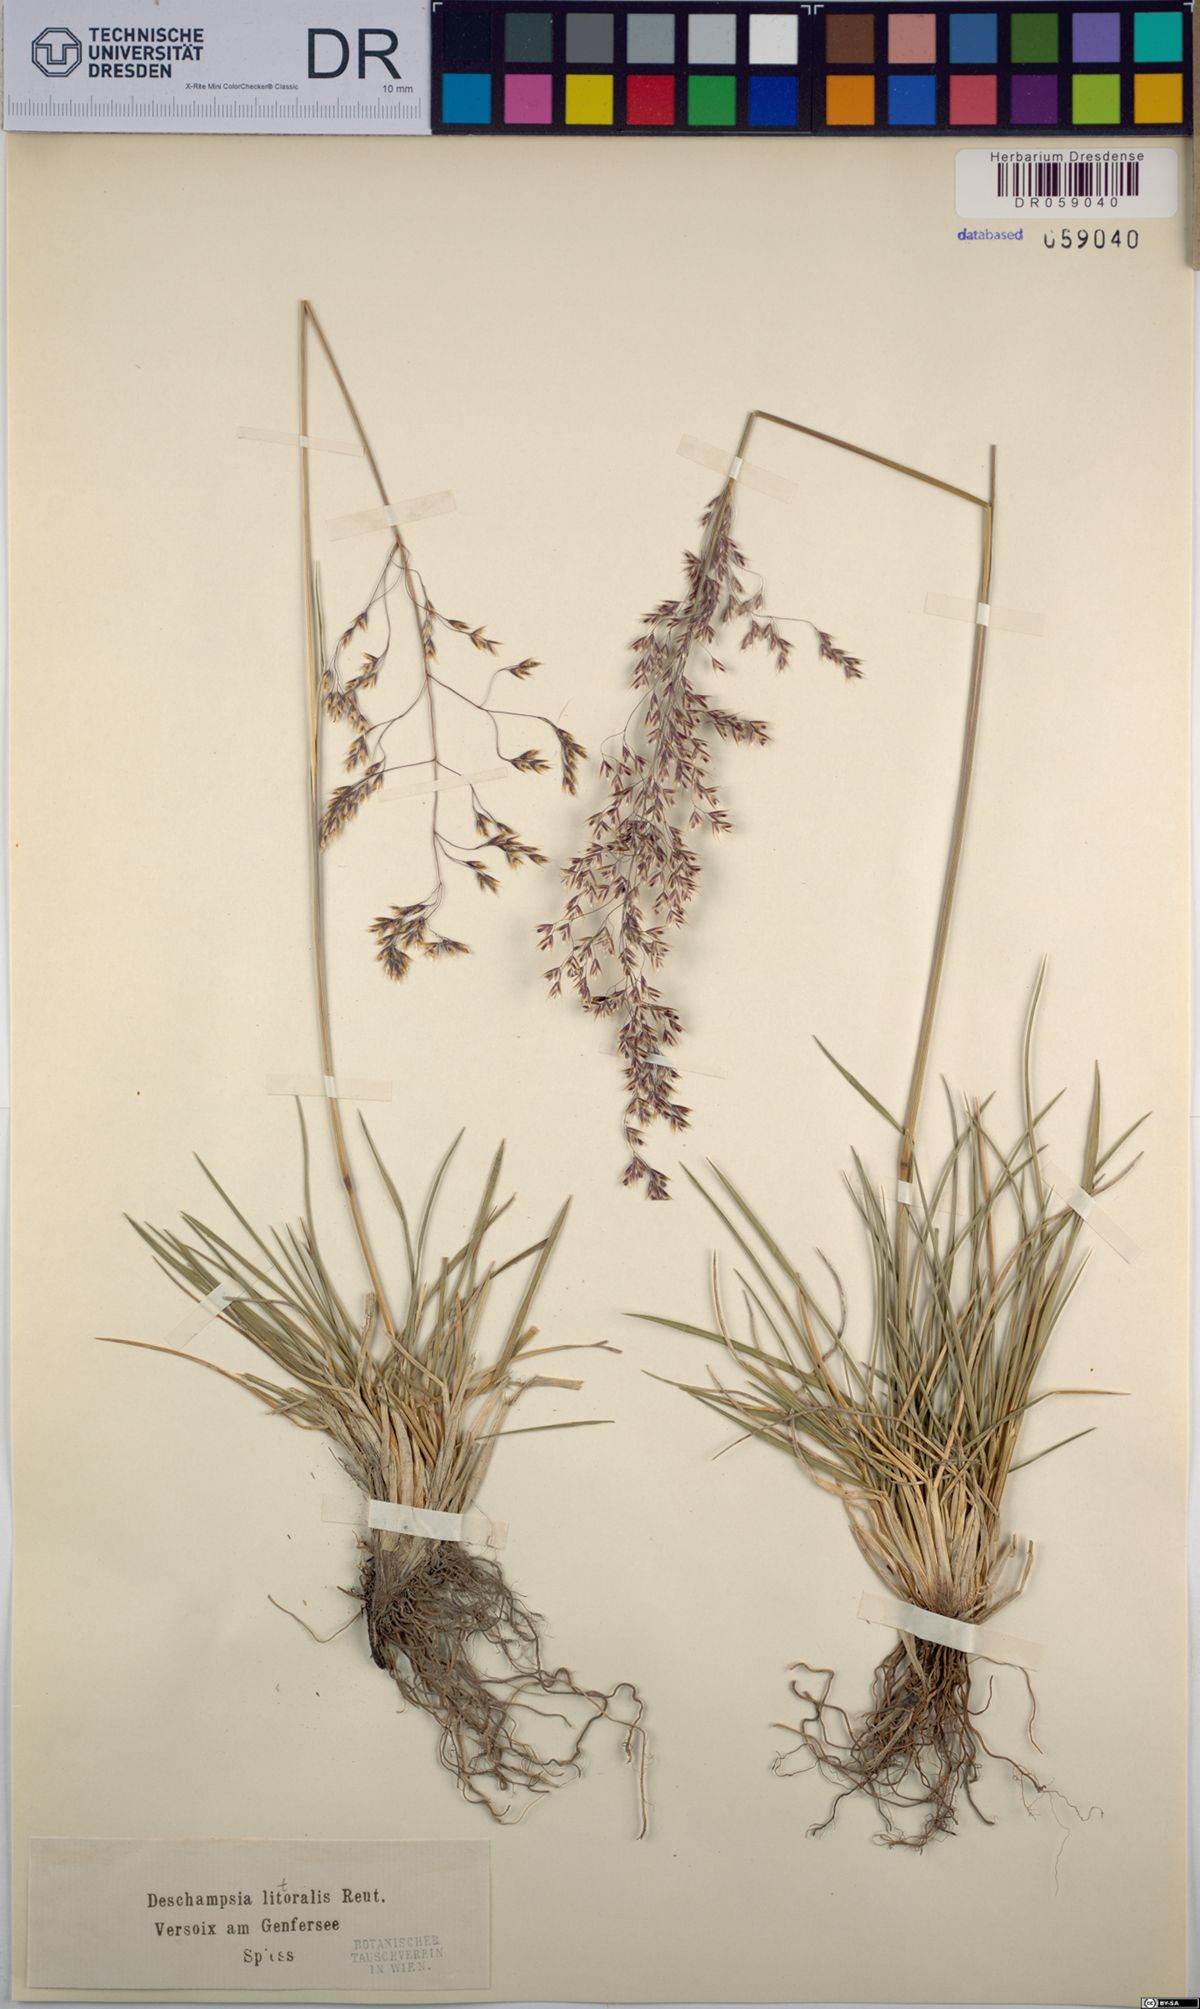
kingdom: Plantae
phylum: Tracheophyta
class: Liliopsida
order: Poales
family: Poaceae
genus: Deschampsia
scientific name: Deschampsia cespitosa
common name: Tufted hair-grass
